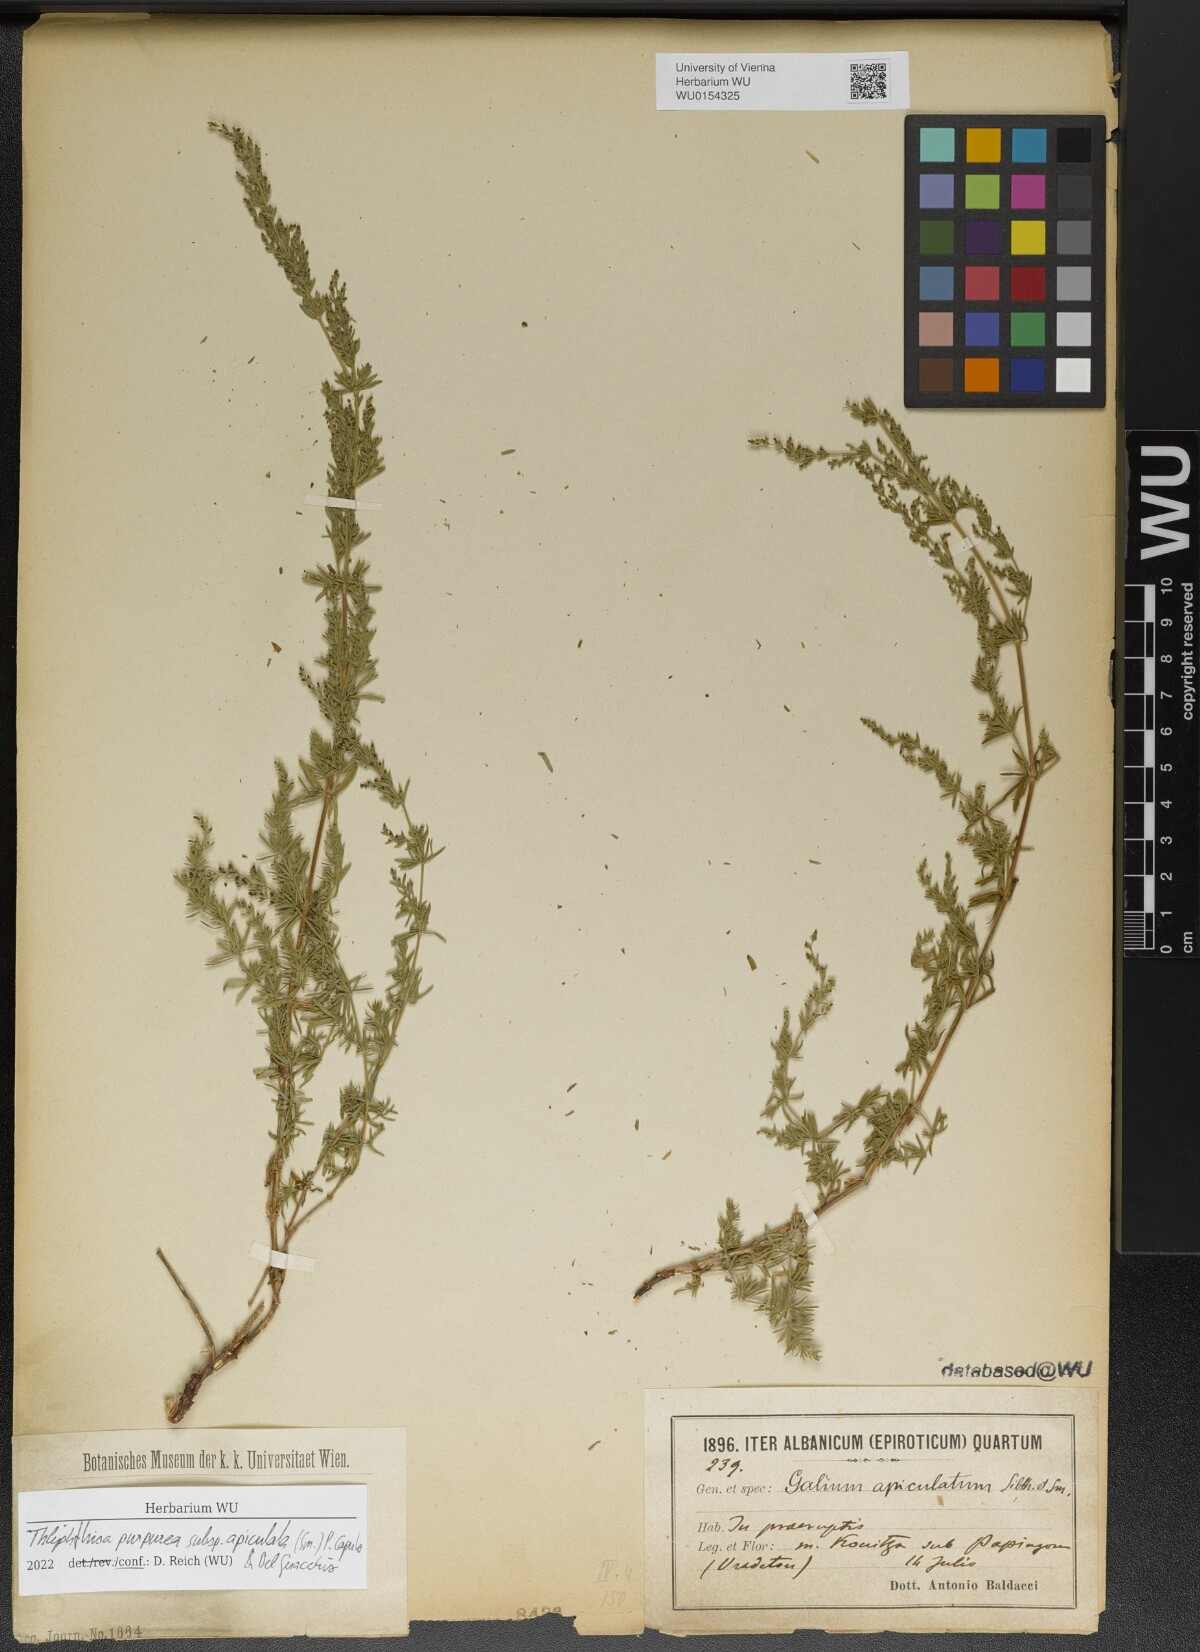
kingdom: Plantae
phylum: Tracheophyta
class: Magnoliopsida
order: Gentianales
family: Rubiaceae
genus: Thliphthisa
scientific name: Thliphthisa purpurea
